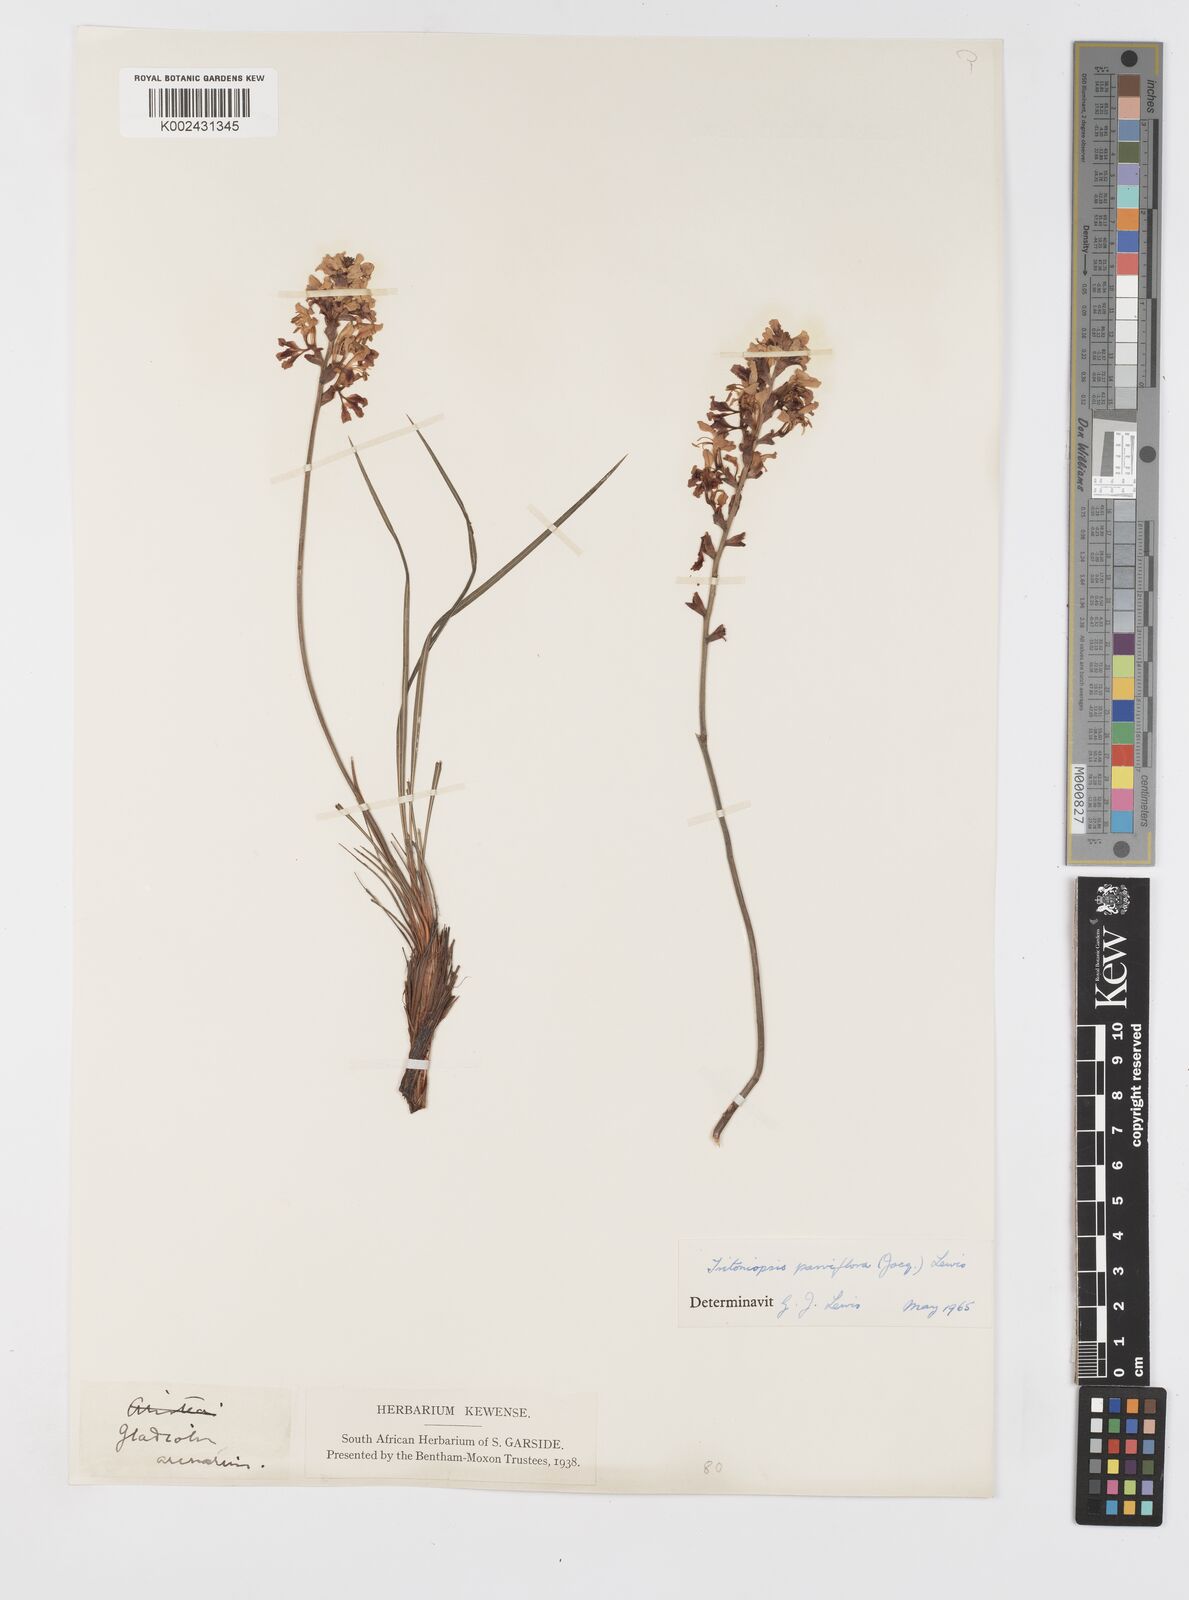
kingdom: Plantae
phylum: Tracheophyta
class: Liliopsida
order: Asparagales
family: Iridaceae
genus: Tritoniopsis
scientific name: Tritoniopsis parviflora
